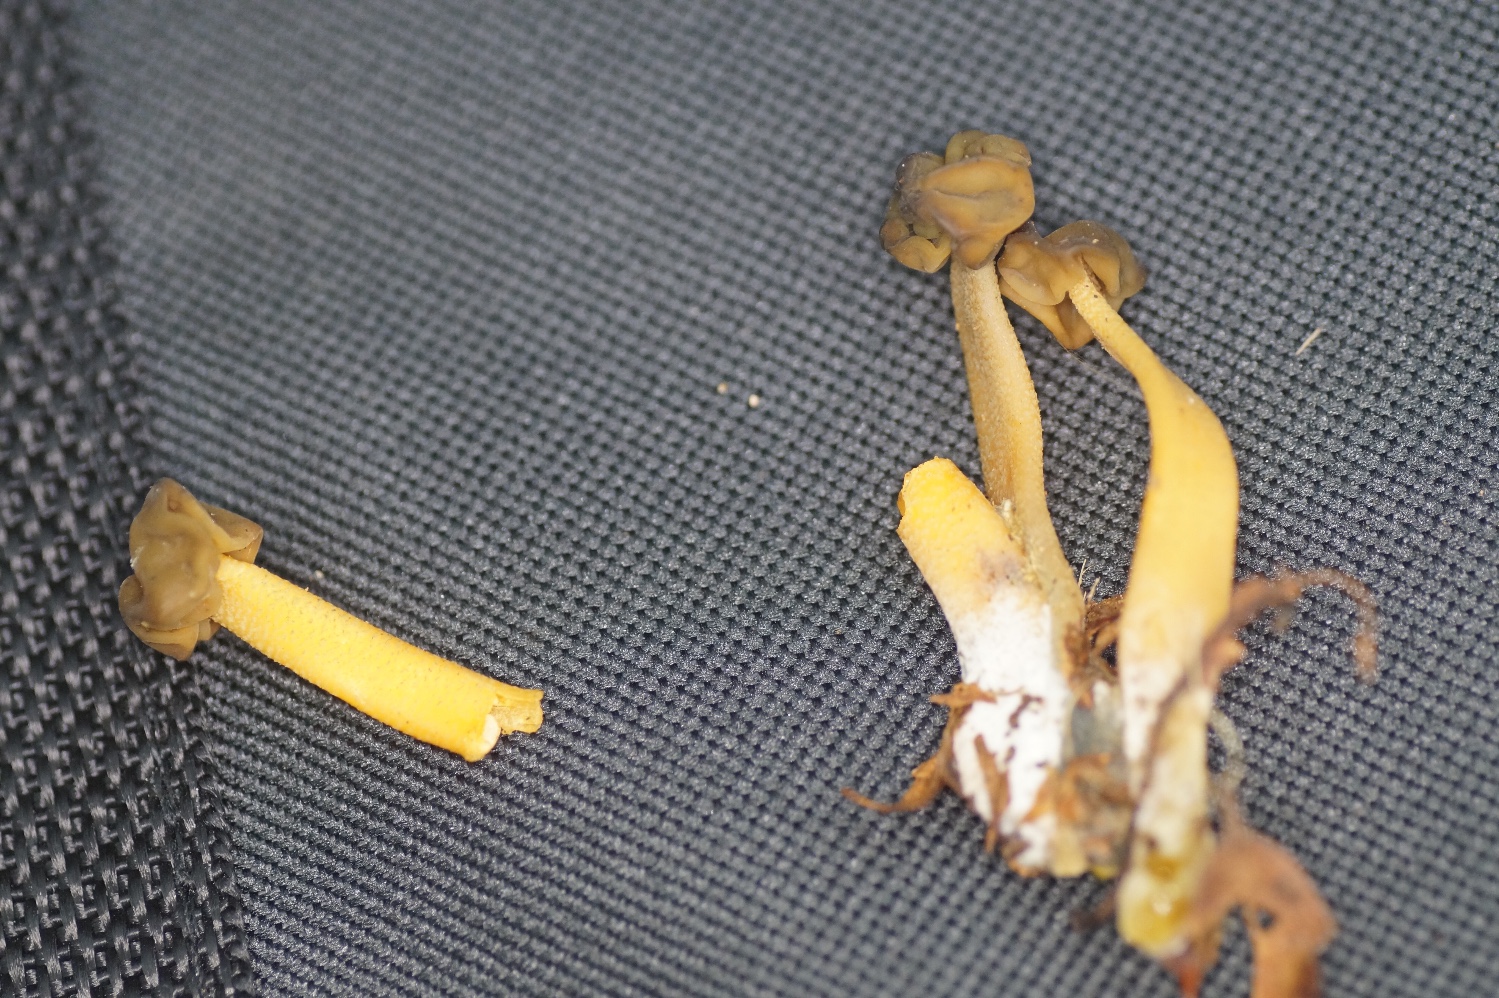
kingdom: Fungi
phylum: Ascomycota
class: Leotiomycetes
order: Leotiales
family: Leotiaceae
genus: Leotia
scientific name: Leotia lubrica
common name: ravsvamp
